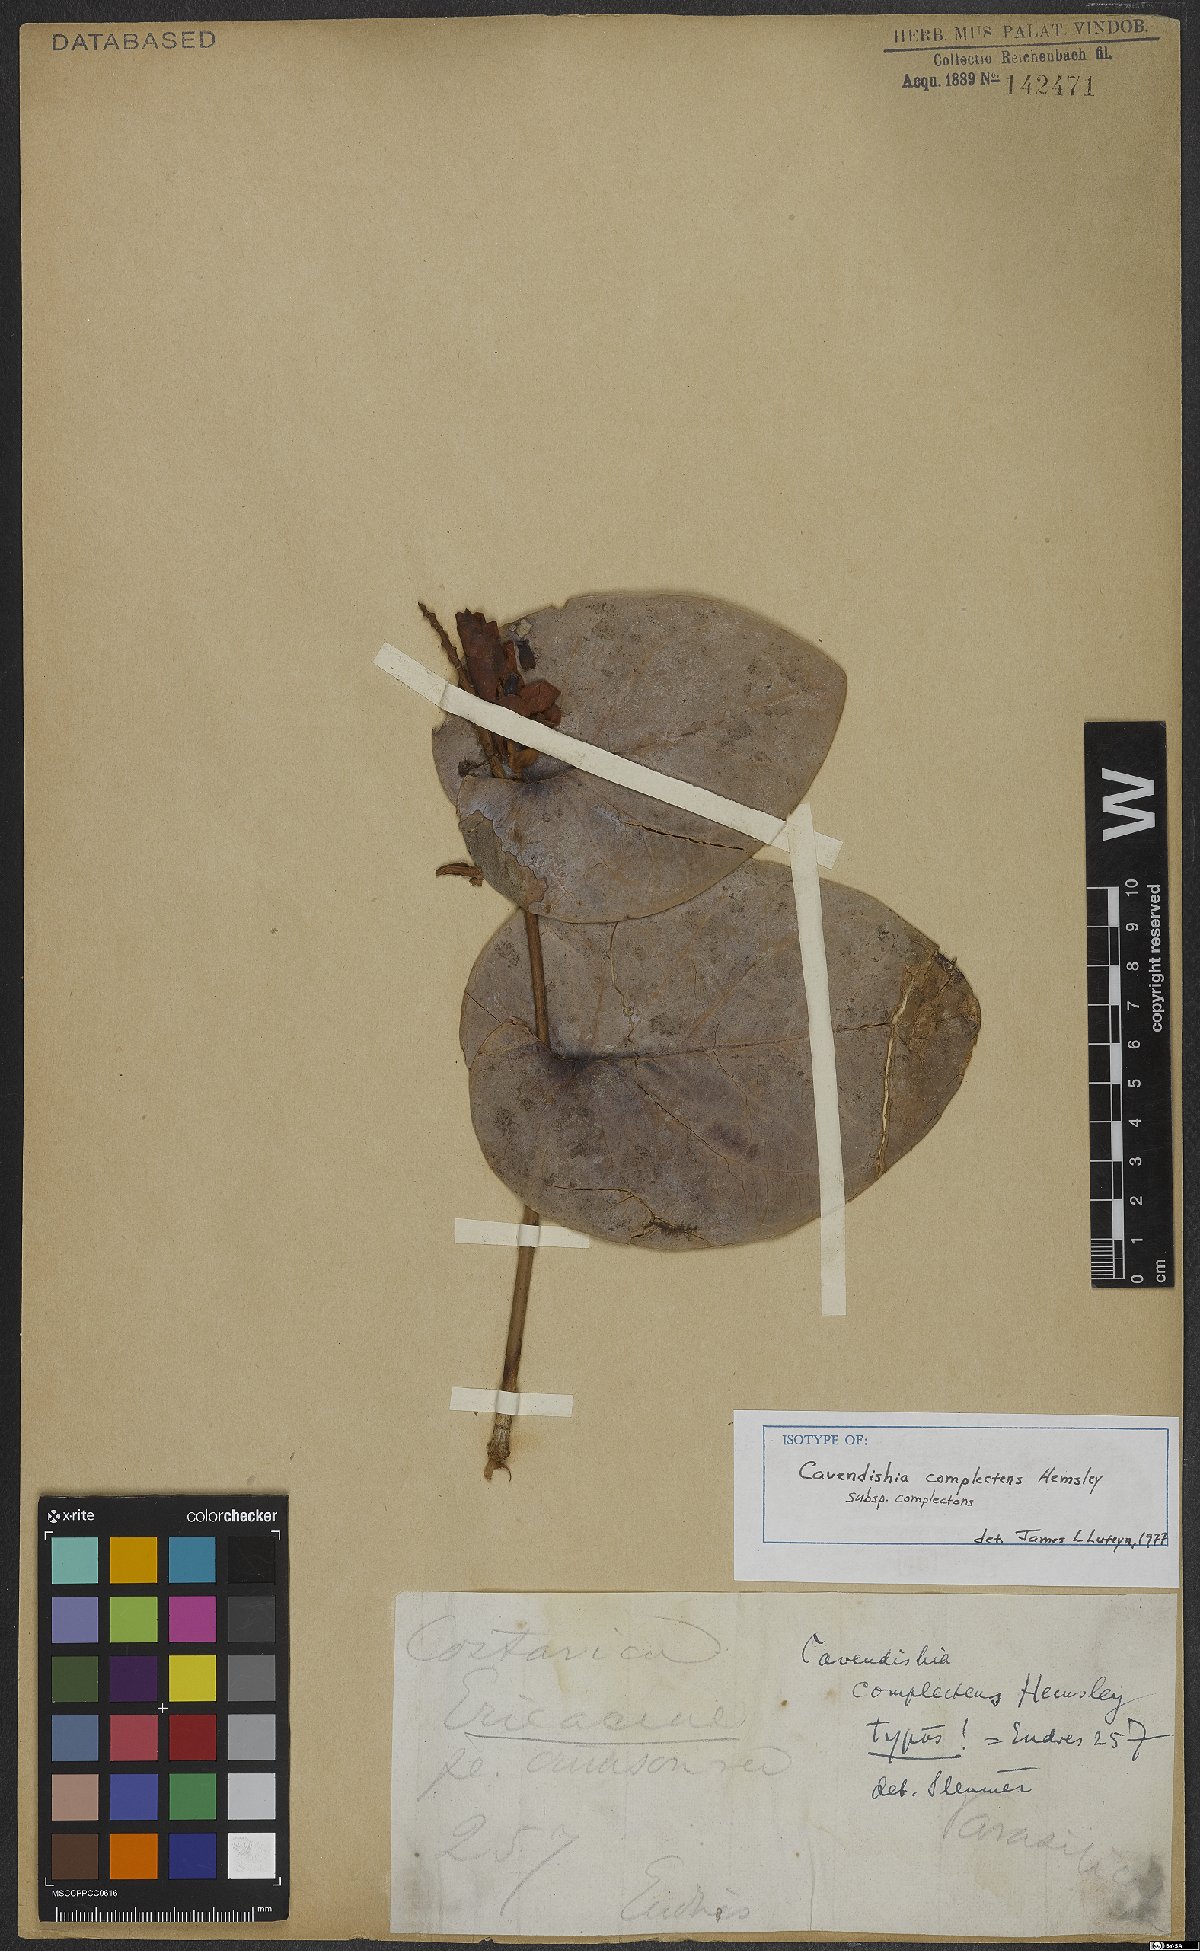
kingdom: Plantae
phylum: Tracheophyta
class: Magnoliopsida
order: Ericales
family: Ericaceae
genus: Cavendishia
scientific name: Cavendishia complectens
